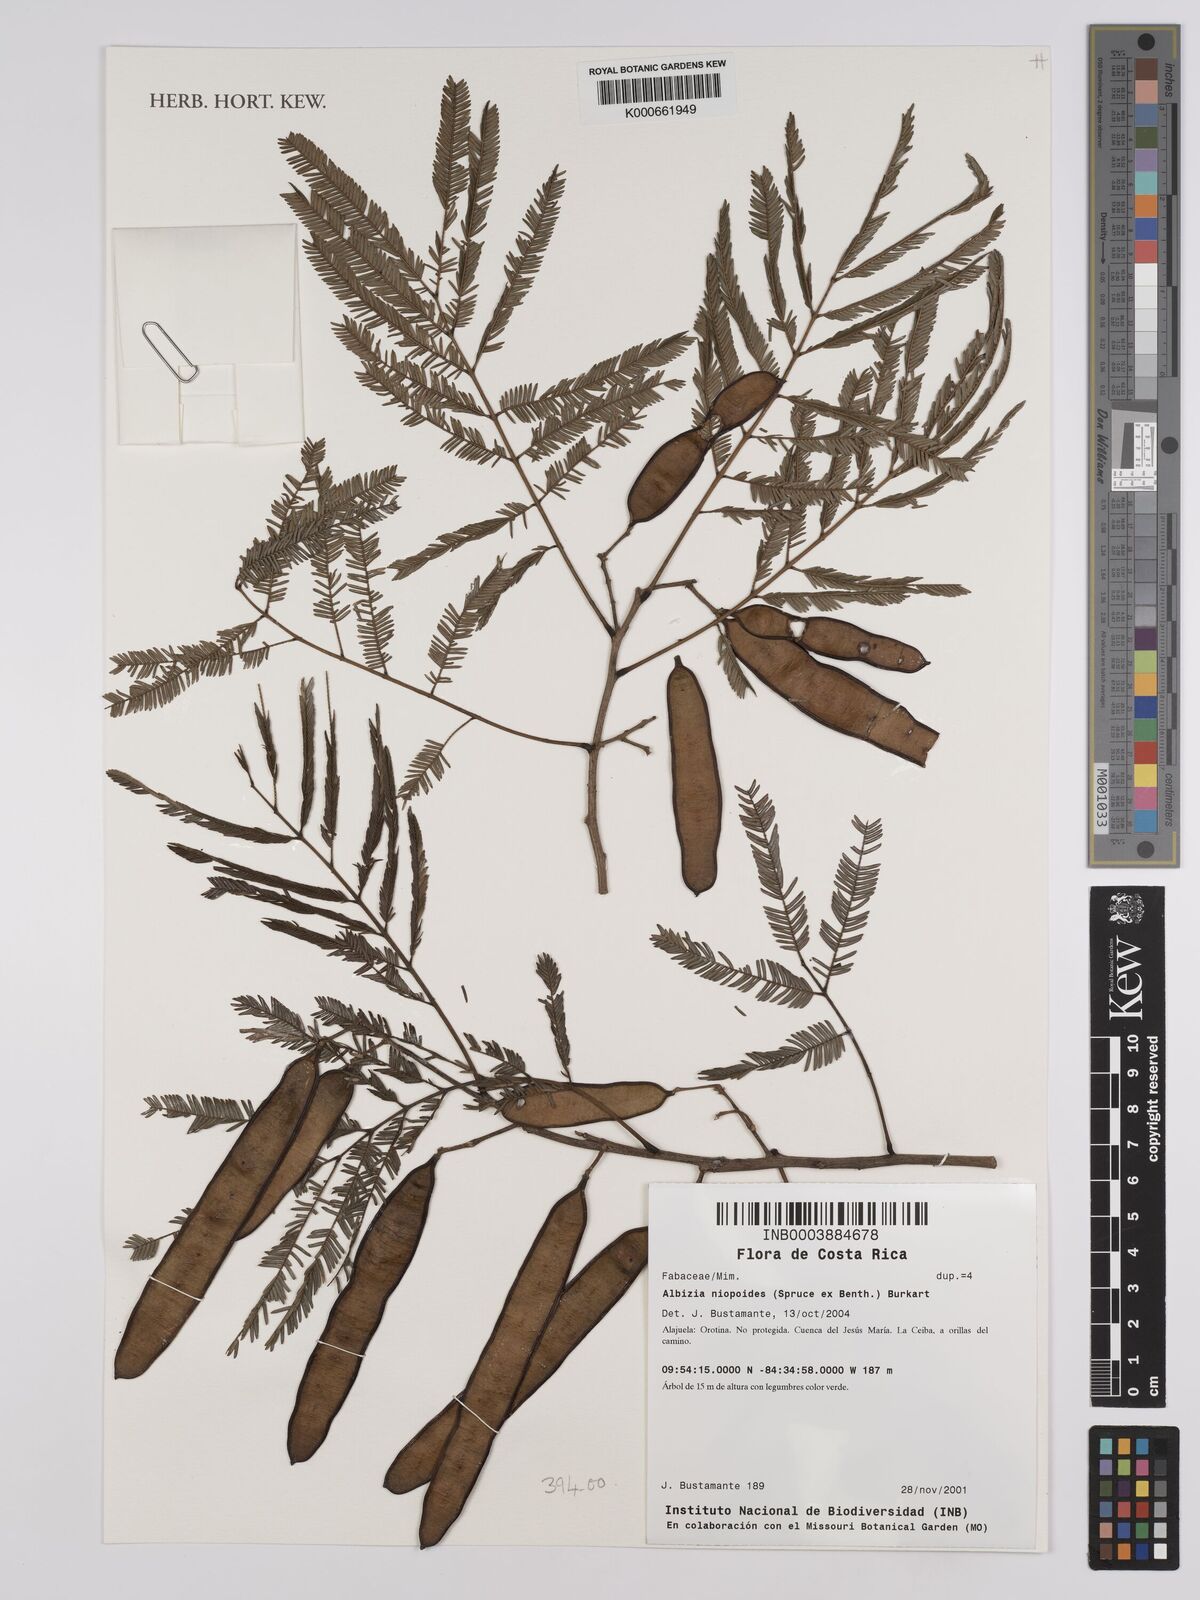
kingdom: Plantae
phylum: Tracheophyta
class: Magnoliopsida
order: Fabales
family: Fabaceae
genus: Albizia
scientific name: Albizia niopoides
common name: Silk tree
